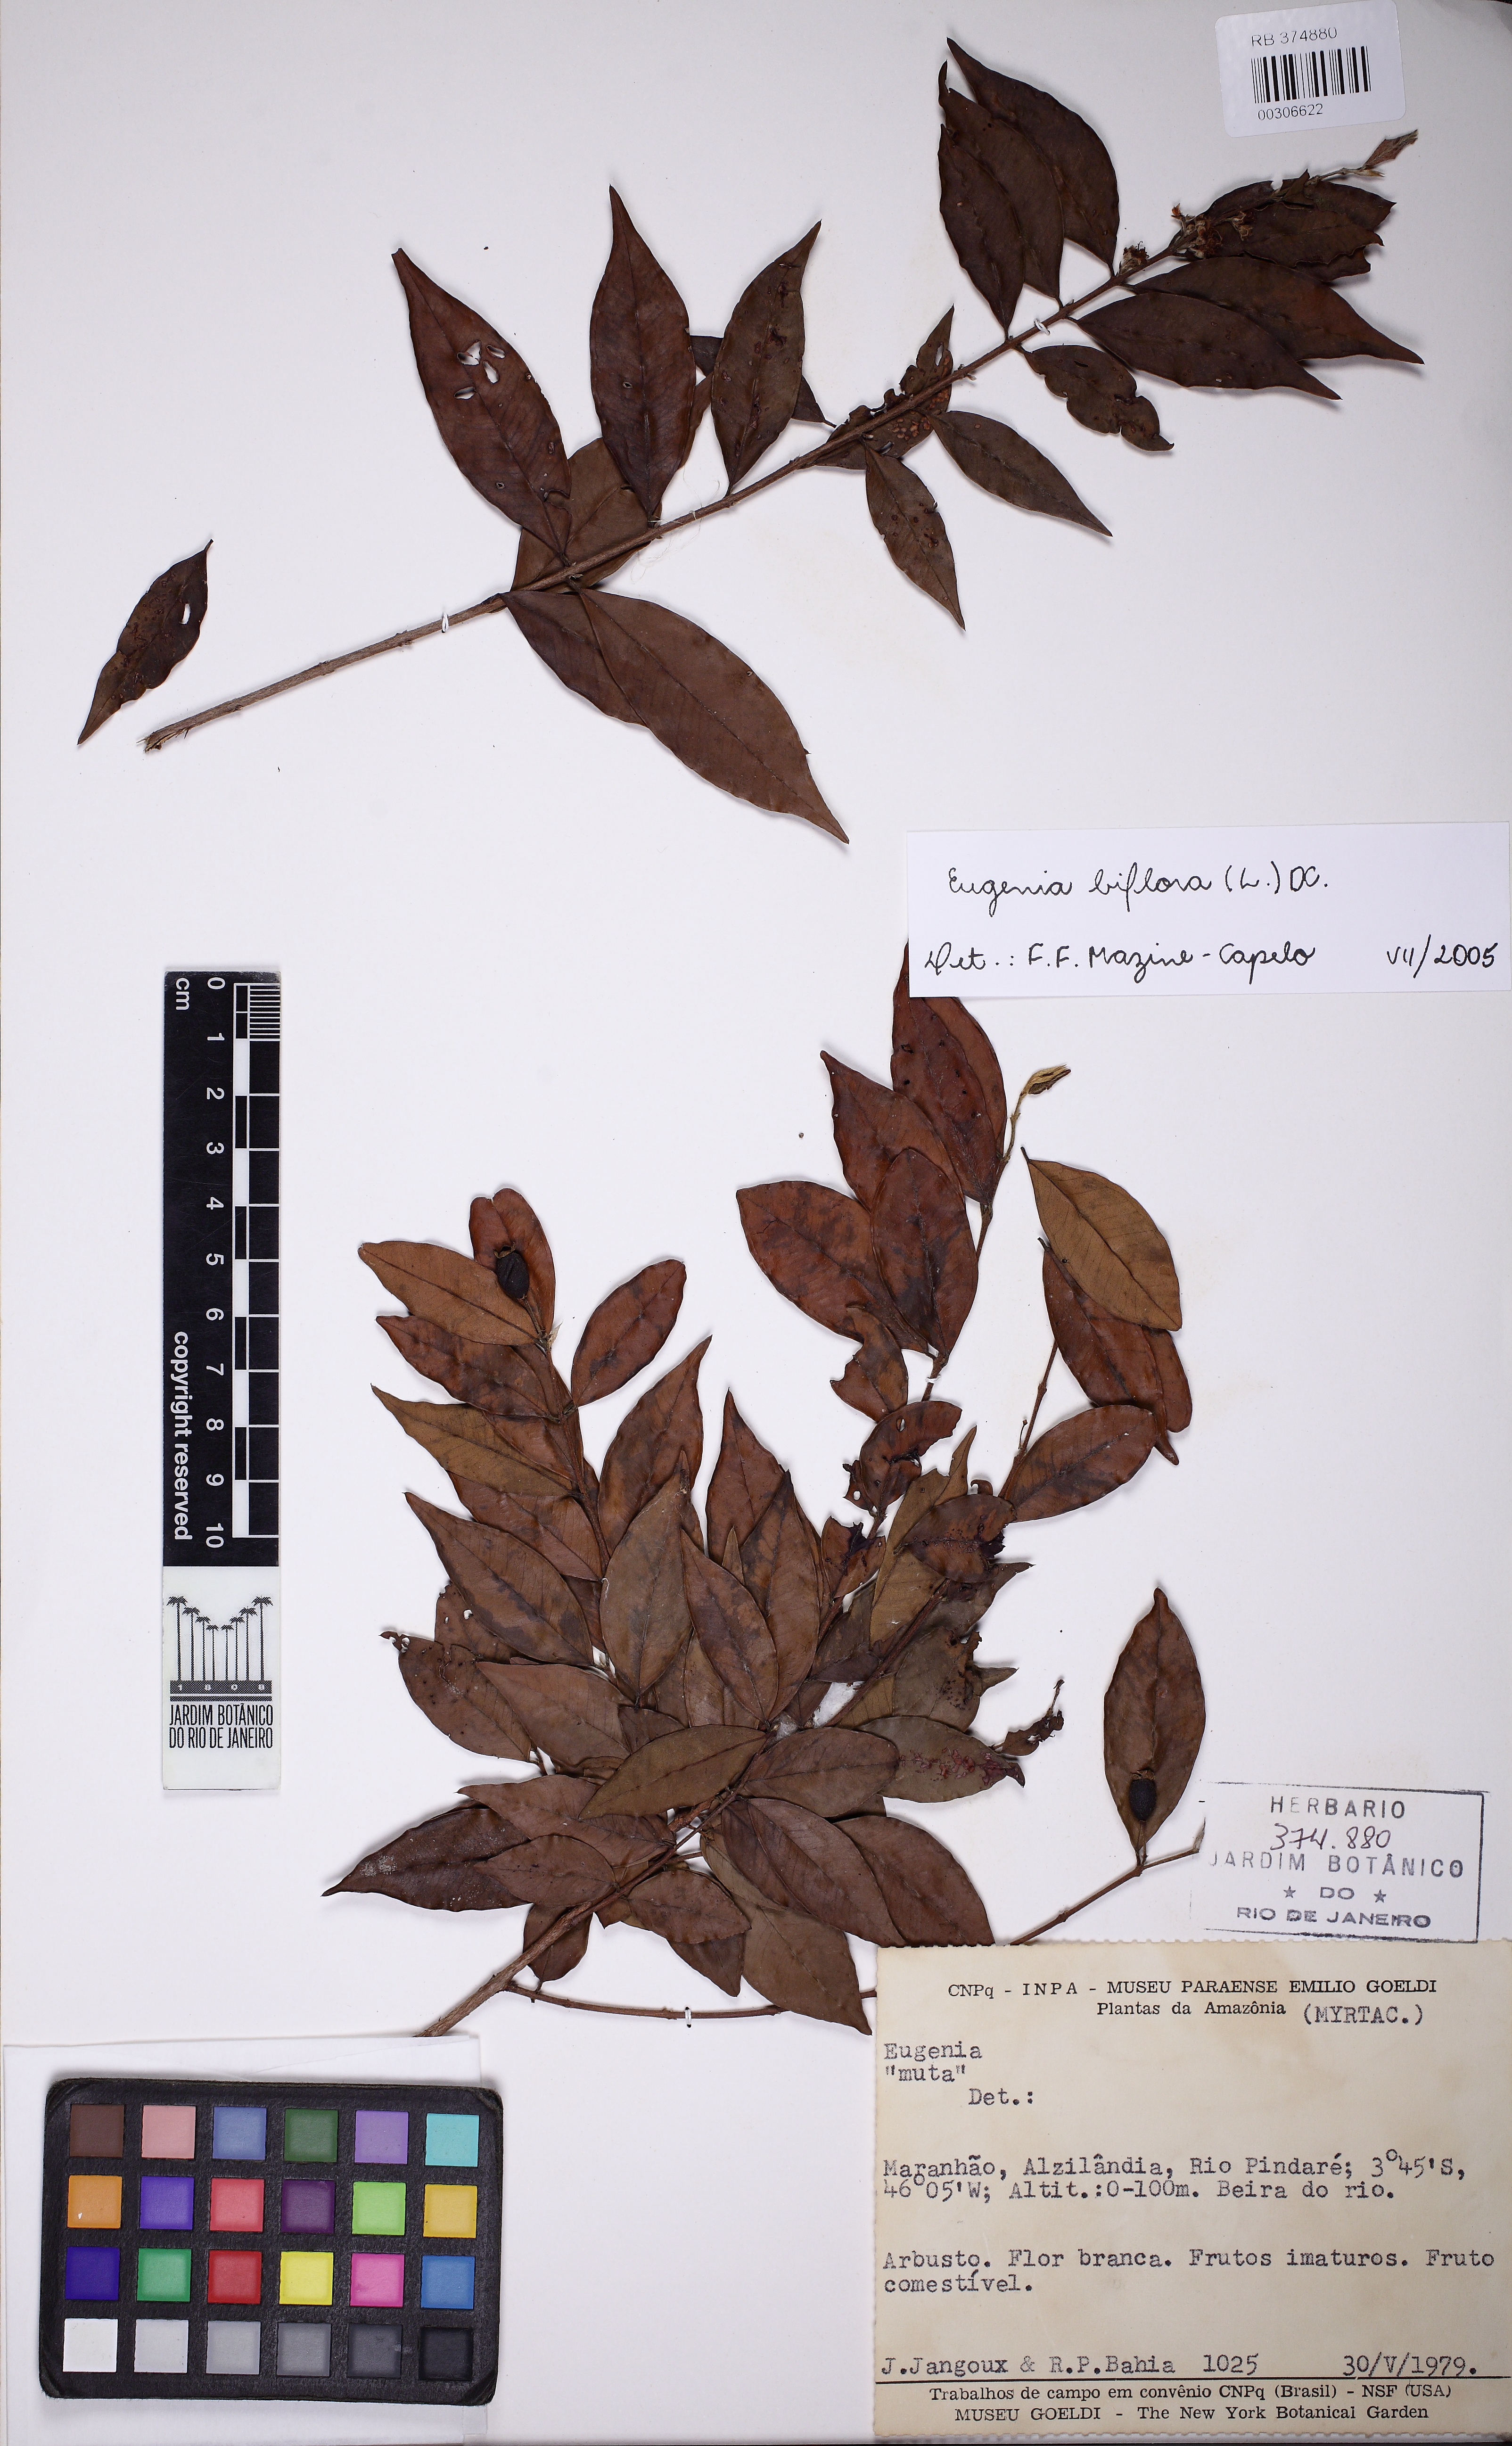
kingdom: Plantae
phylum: Tracheophyta
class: Magnoliopsida
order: Myrtales
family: Myrtaceae
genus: Eugenia
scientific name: Eugenia biflora
